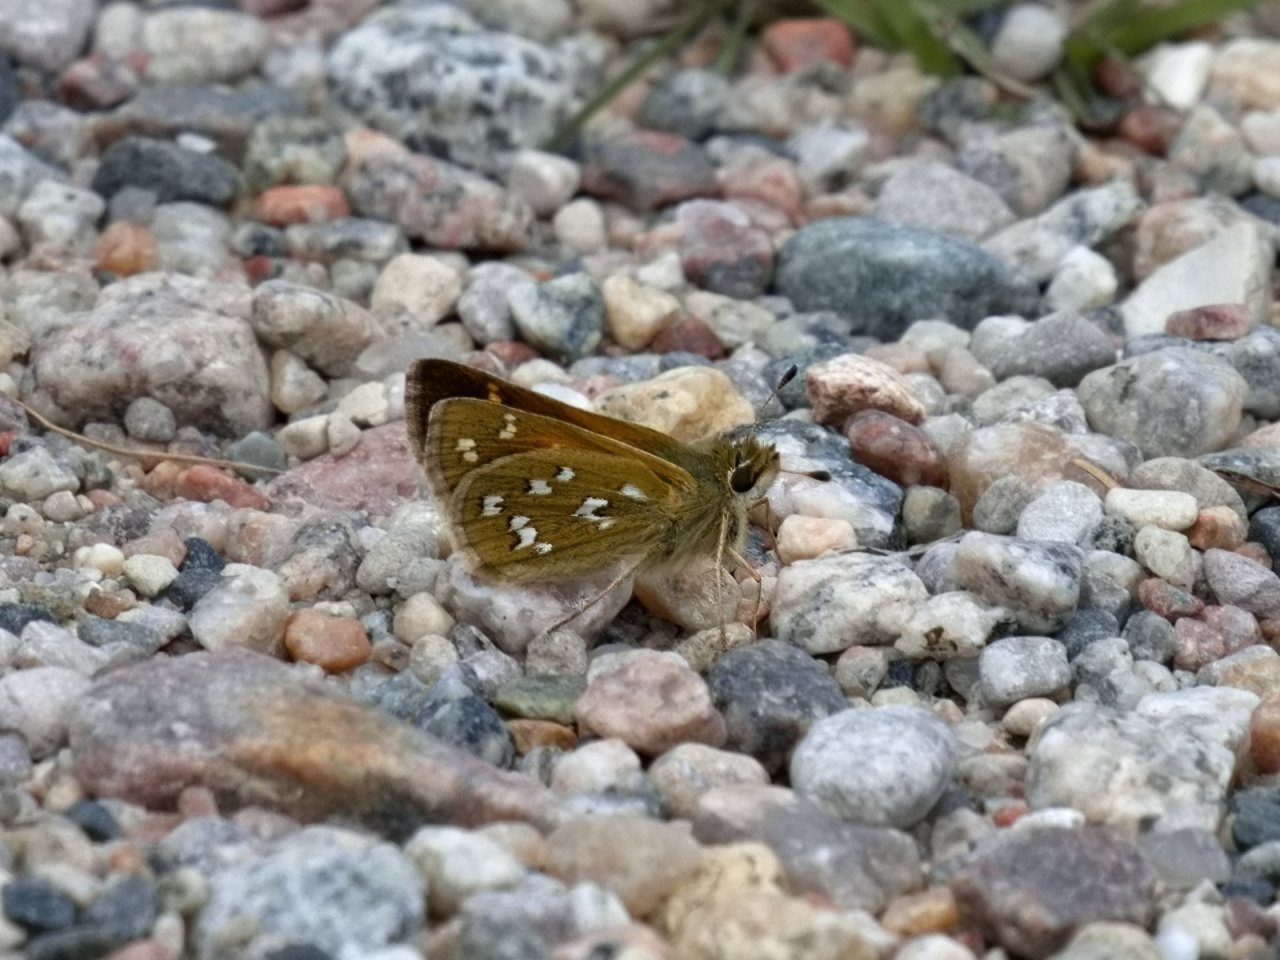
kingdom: Animalia
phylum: Arthropoda
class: Insecta
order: Lepidoptera
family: Hesperiidae
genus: Hesperia
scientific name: Hesperia comma
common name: Common Branded Skipper
